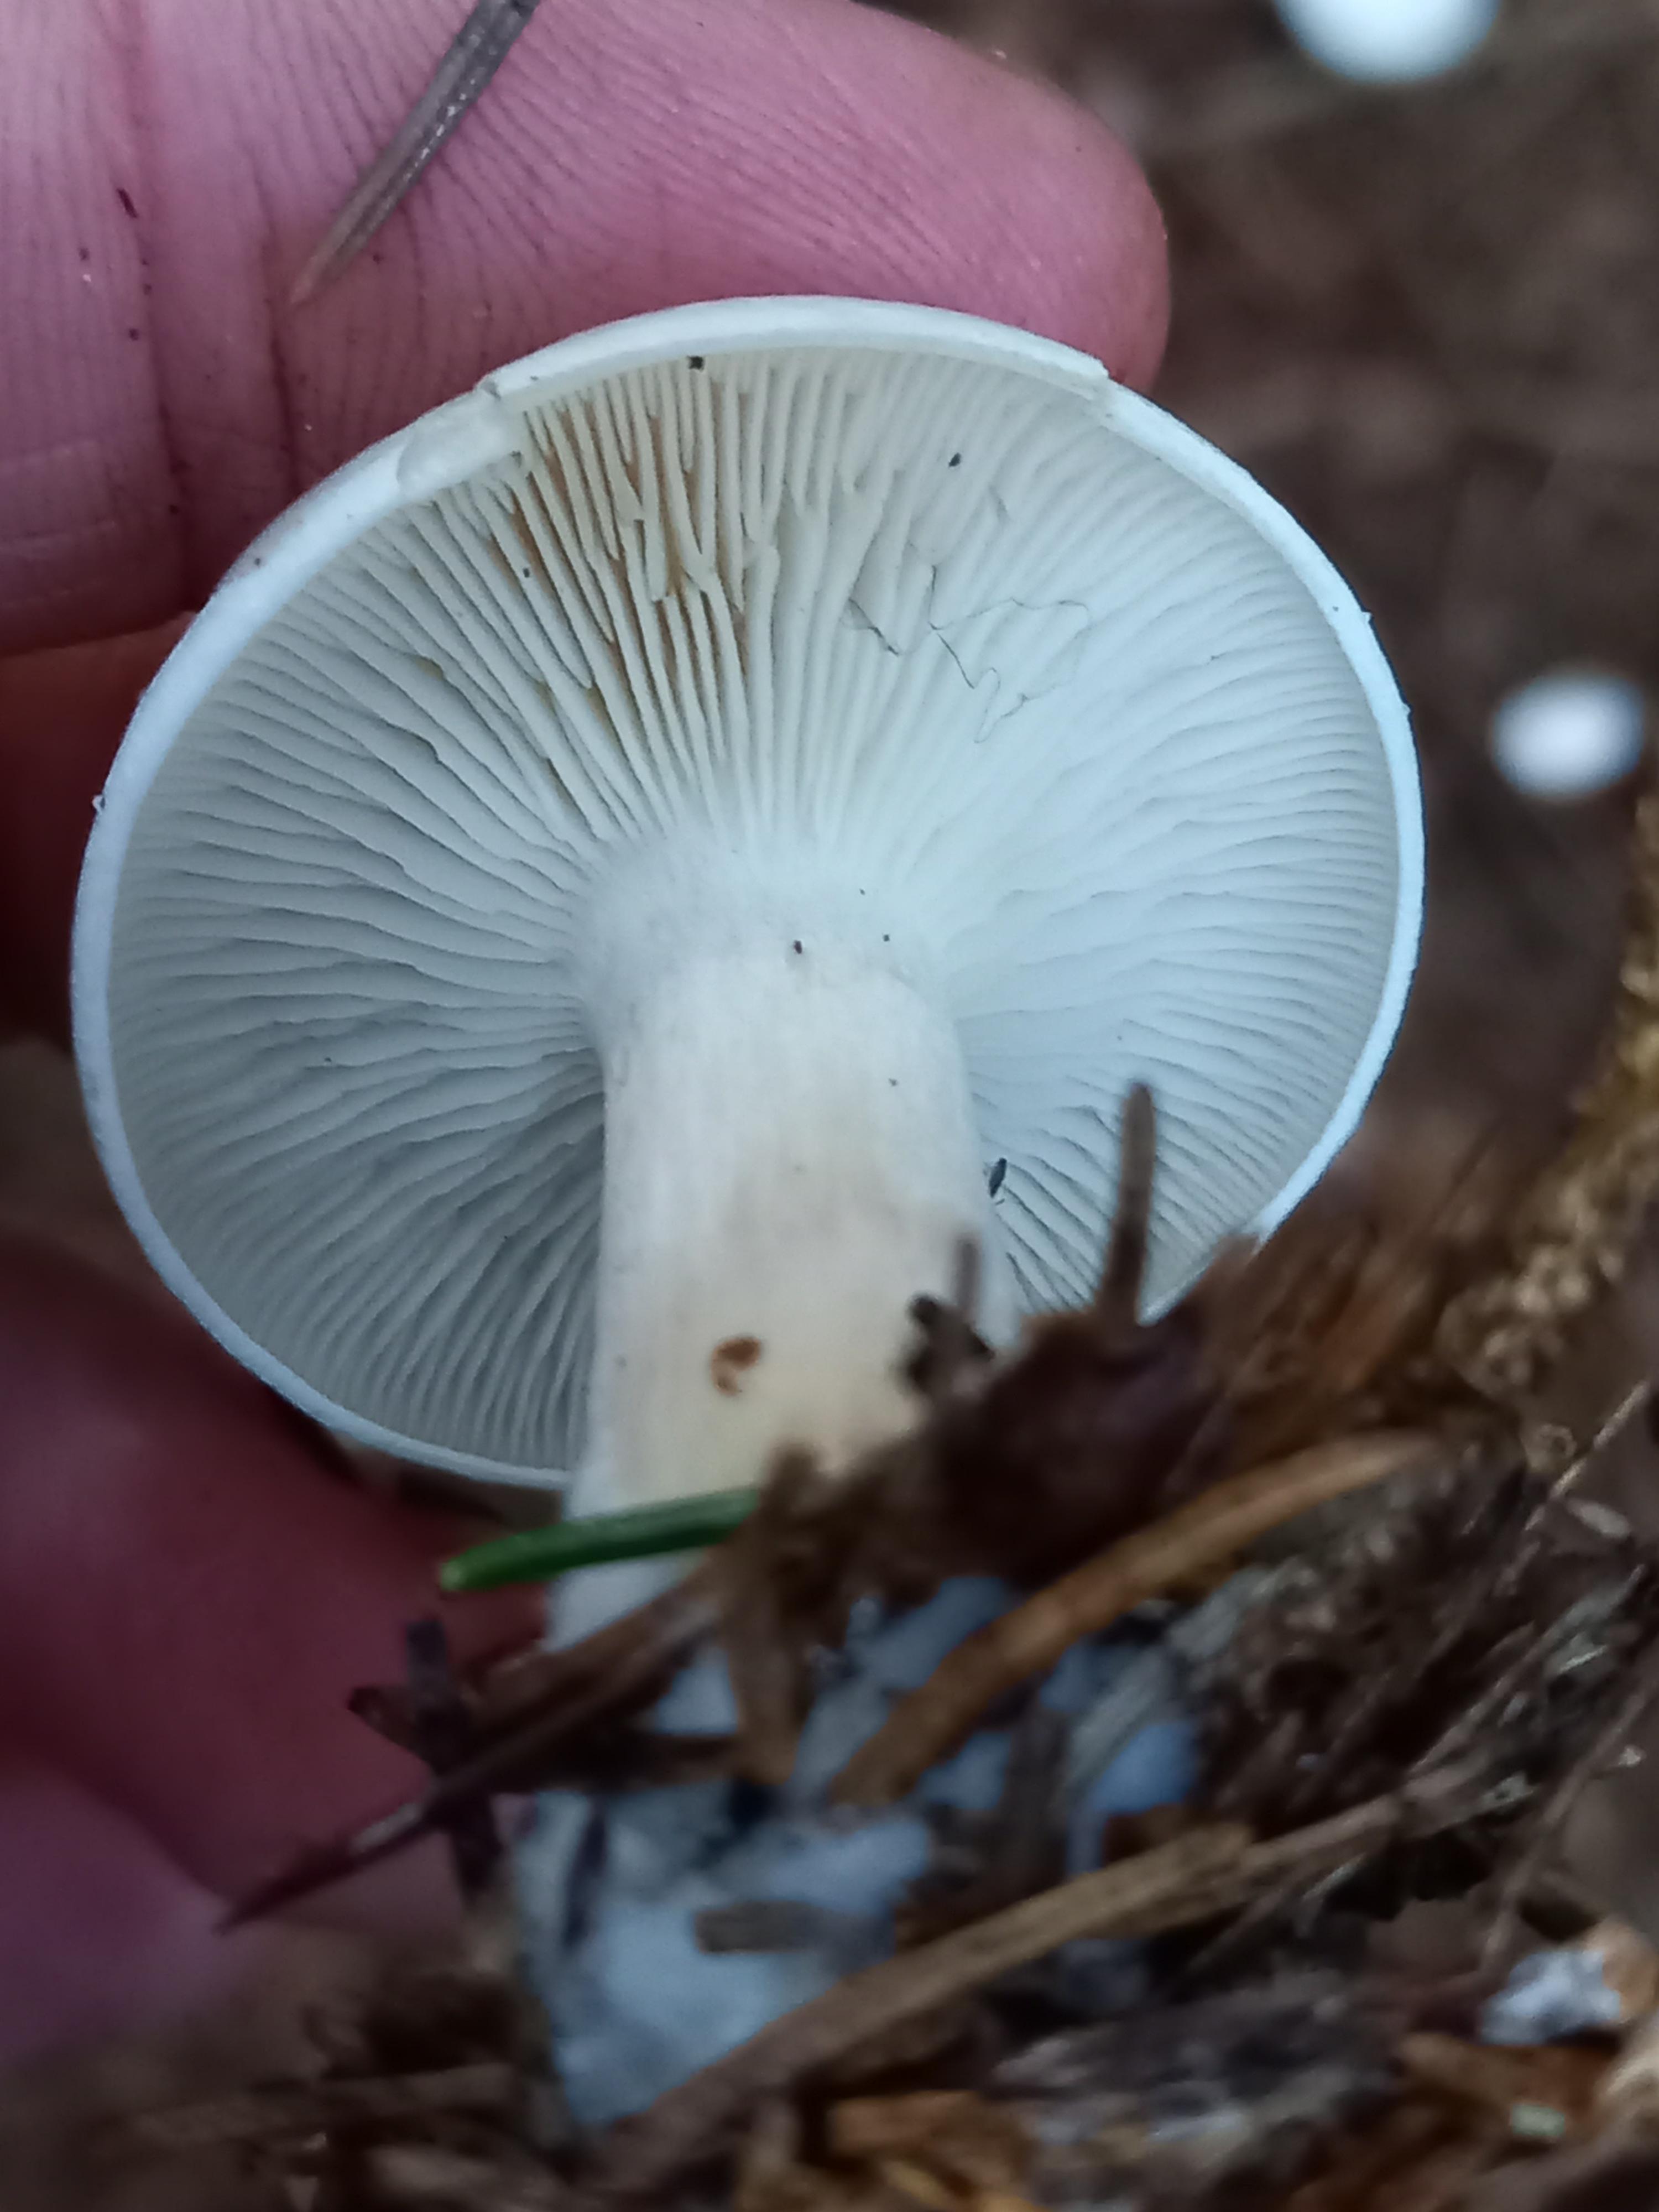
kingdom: Fungi
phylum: Basidiomycota
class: Agaricomycetes
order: Agaricales
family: Tricholomataceae
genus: Clitocybe
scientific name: Clitocybe
